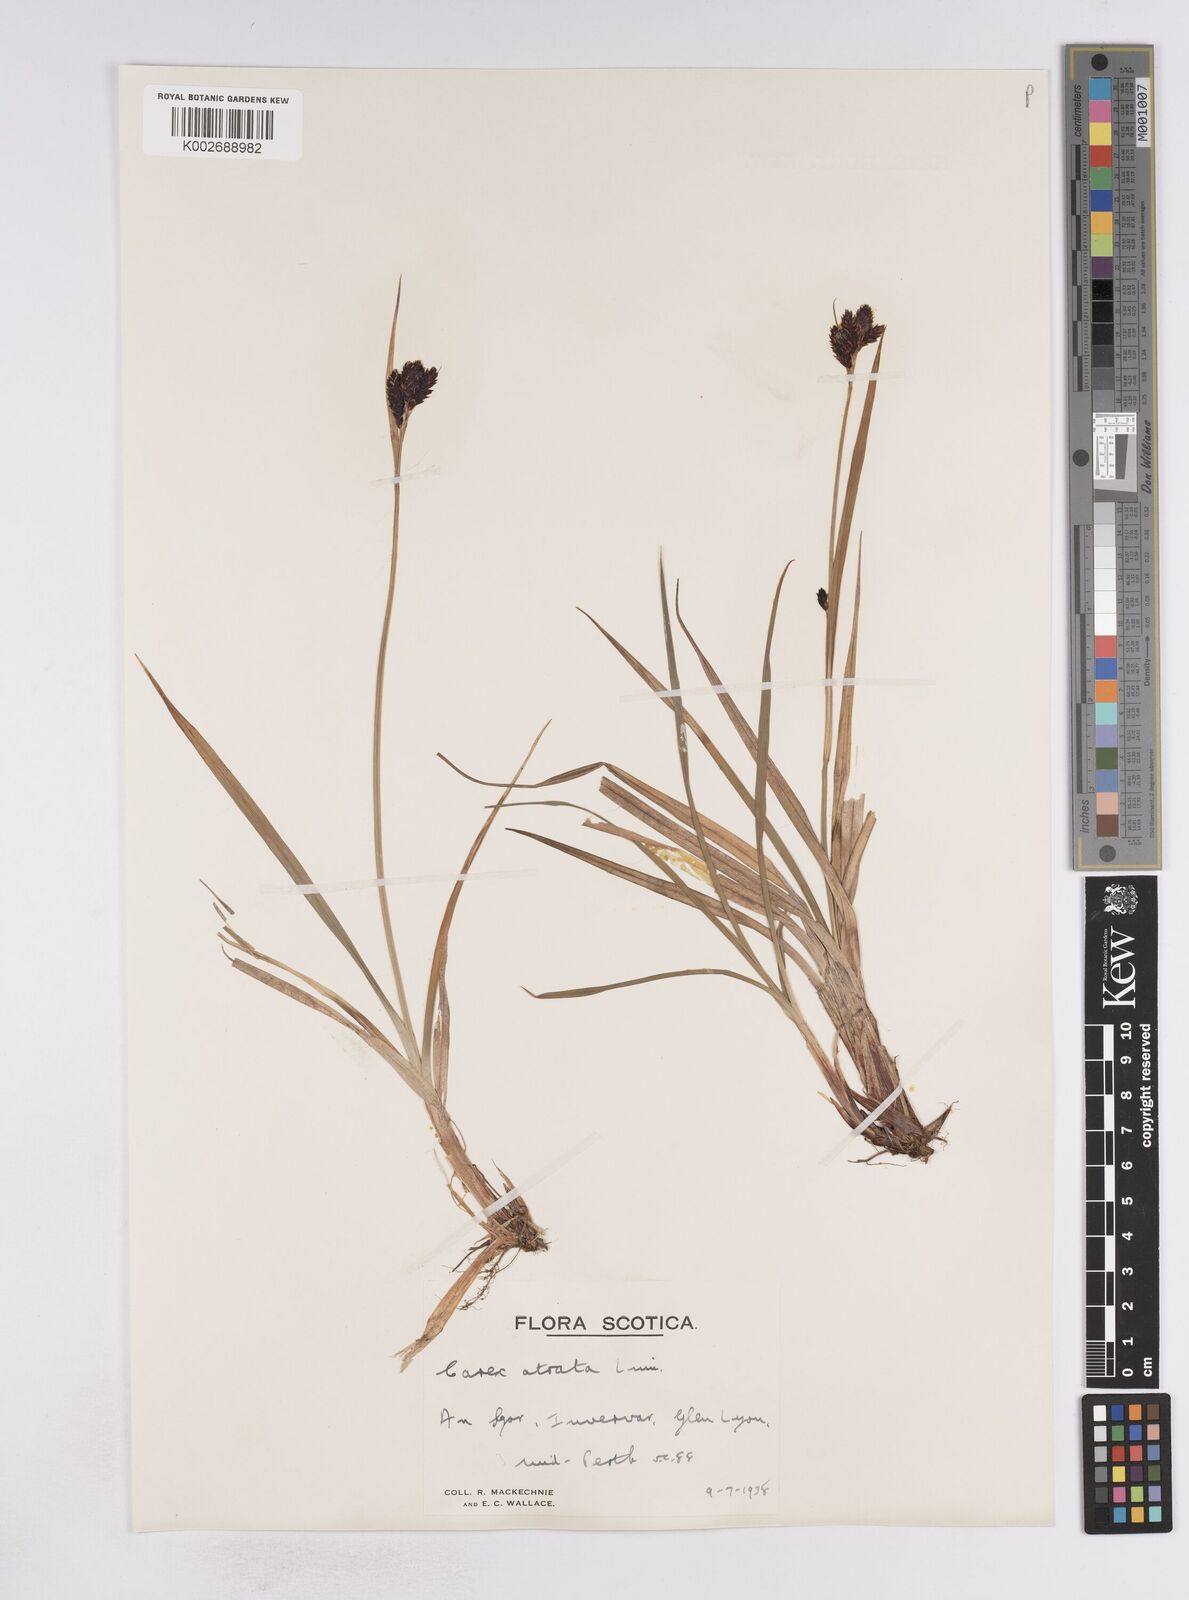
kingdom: Plantae
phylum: Tracheophyta
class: Liliopsida
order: Poales
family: Cyperaceae
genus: Carex
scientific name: Carex atrata
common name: Black alpine sedge
